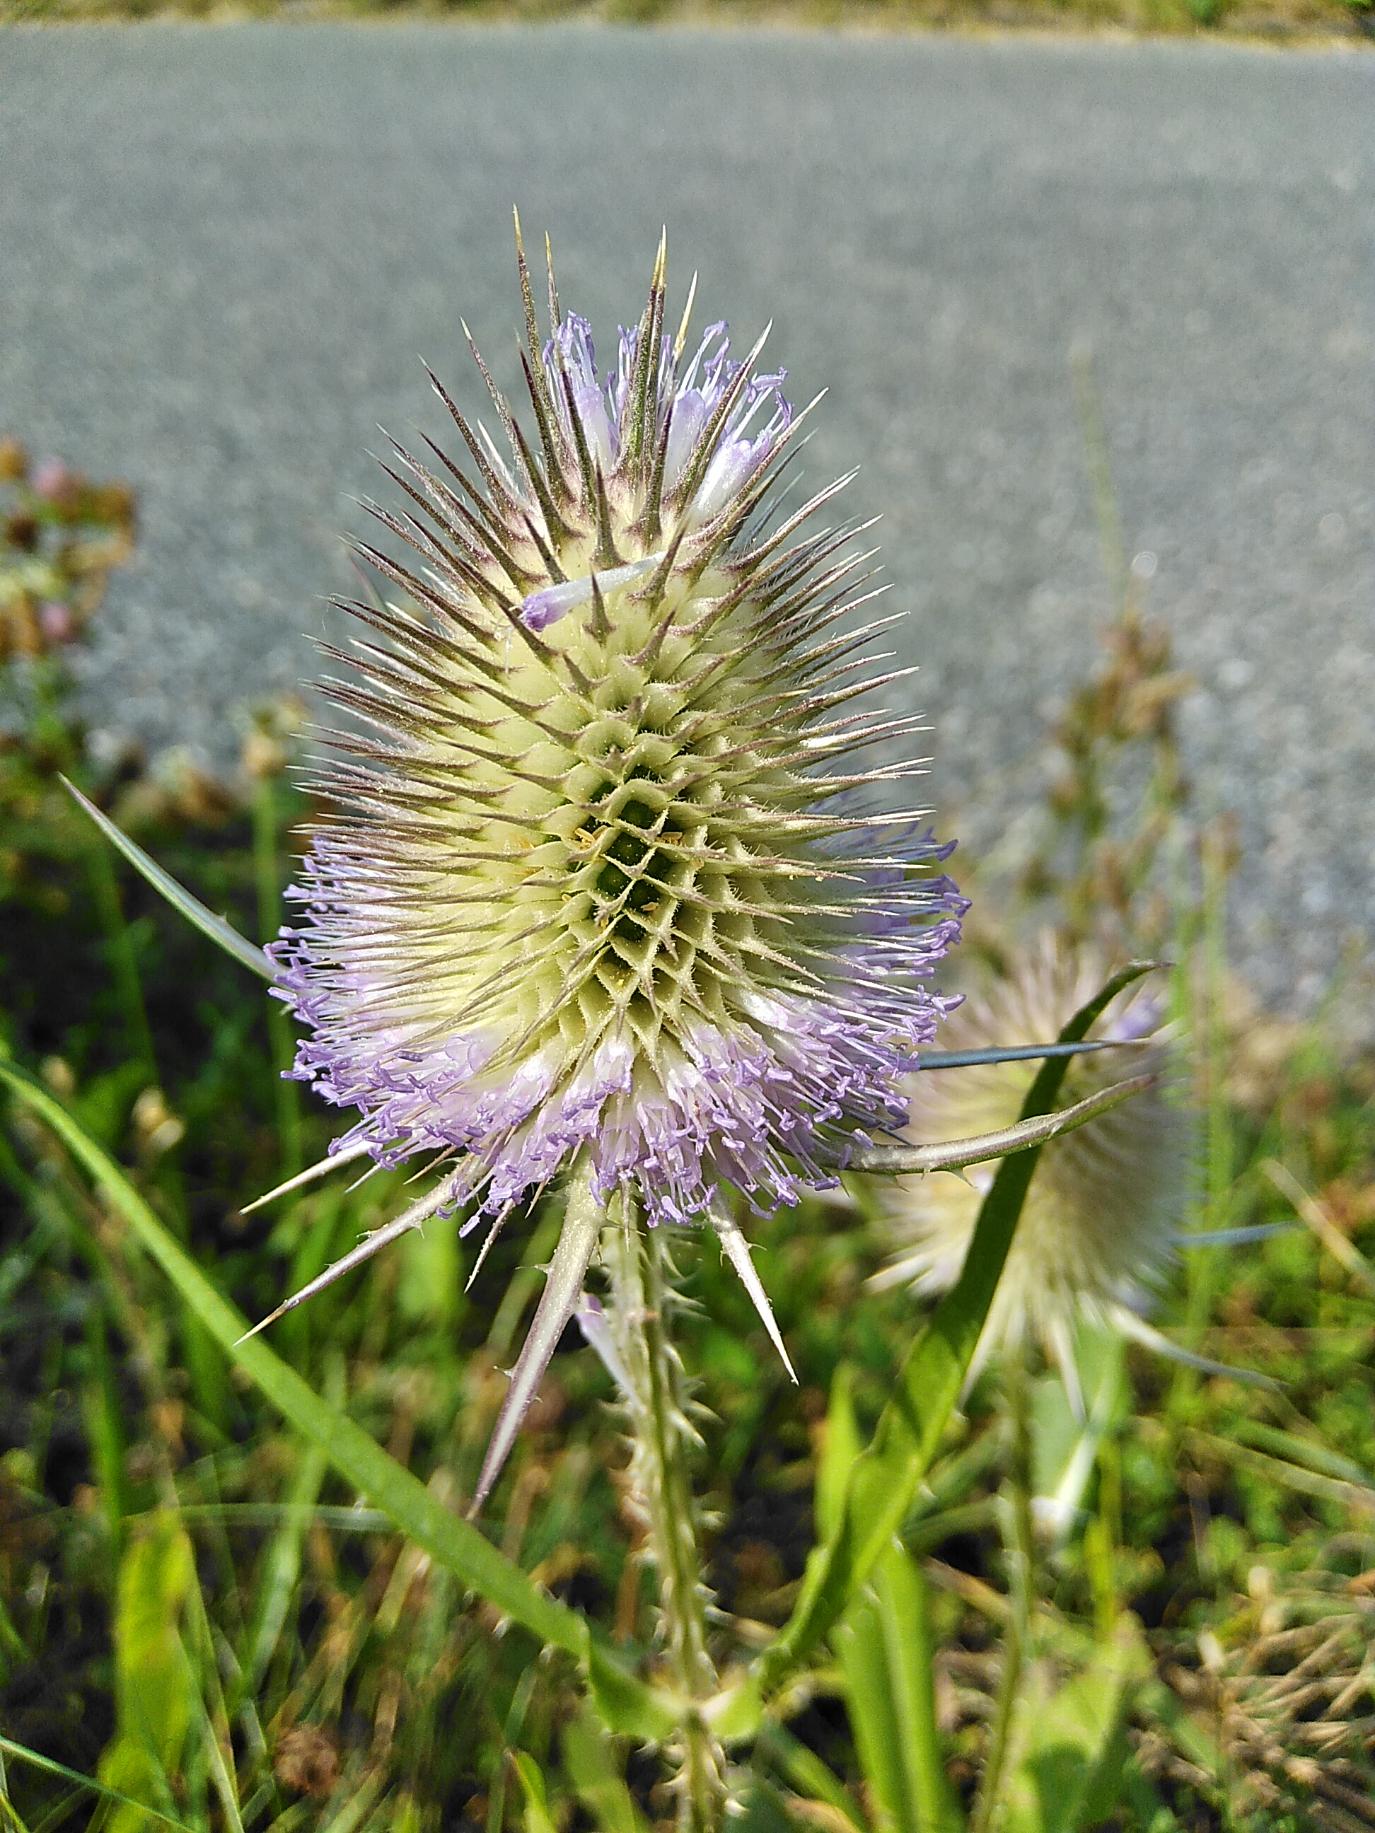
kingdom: Plantae
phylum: Tracheophyta
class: Magnoliopsida
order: Dipsacales
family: Caprifoliaceae
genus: Dipsacus
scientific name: Dipsacus fullonum
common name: Gærde-kartebolle
